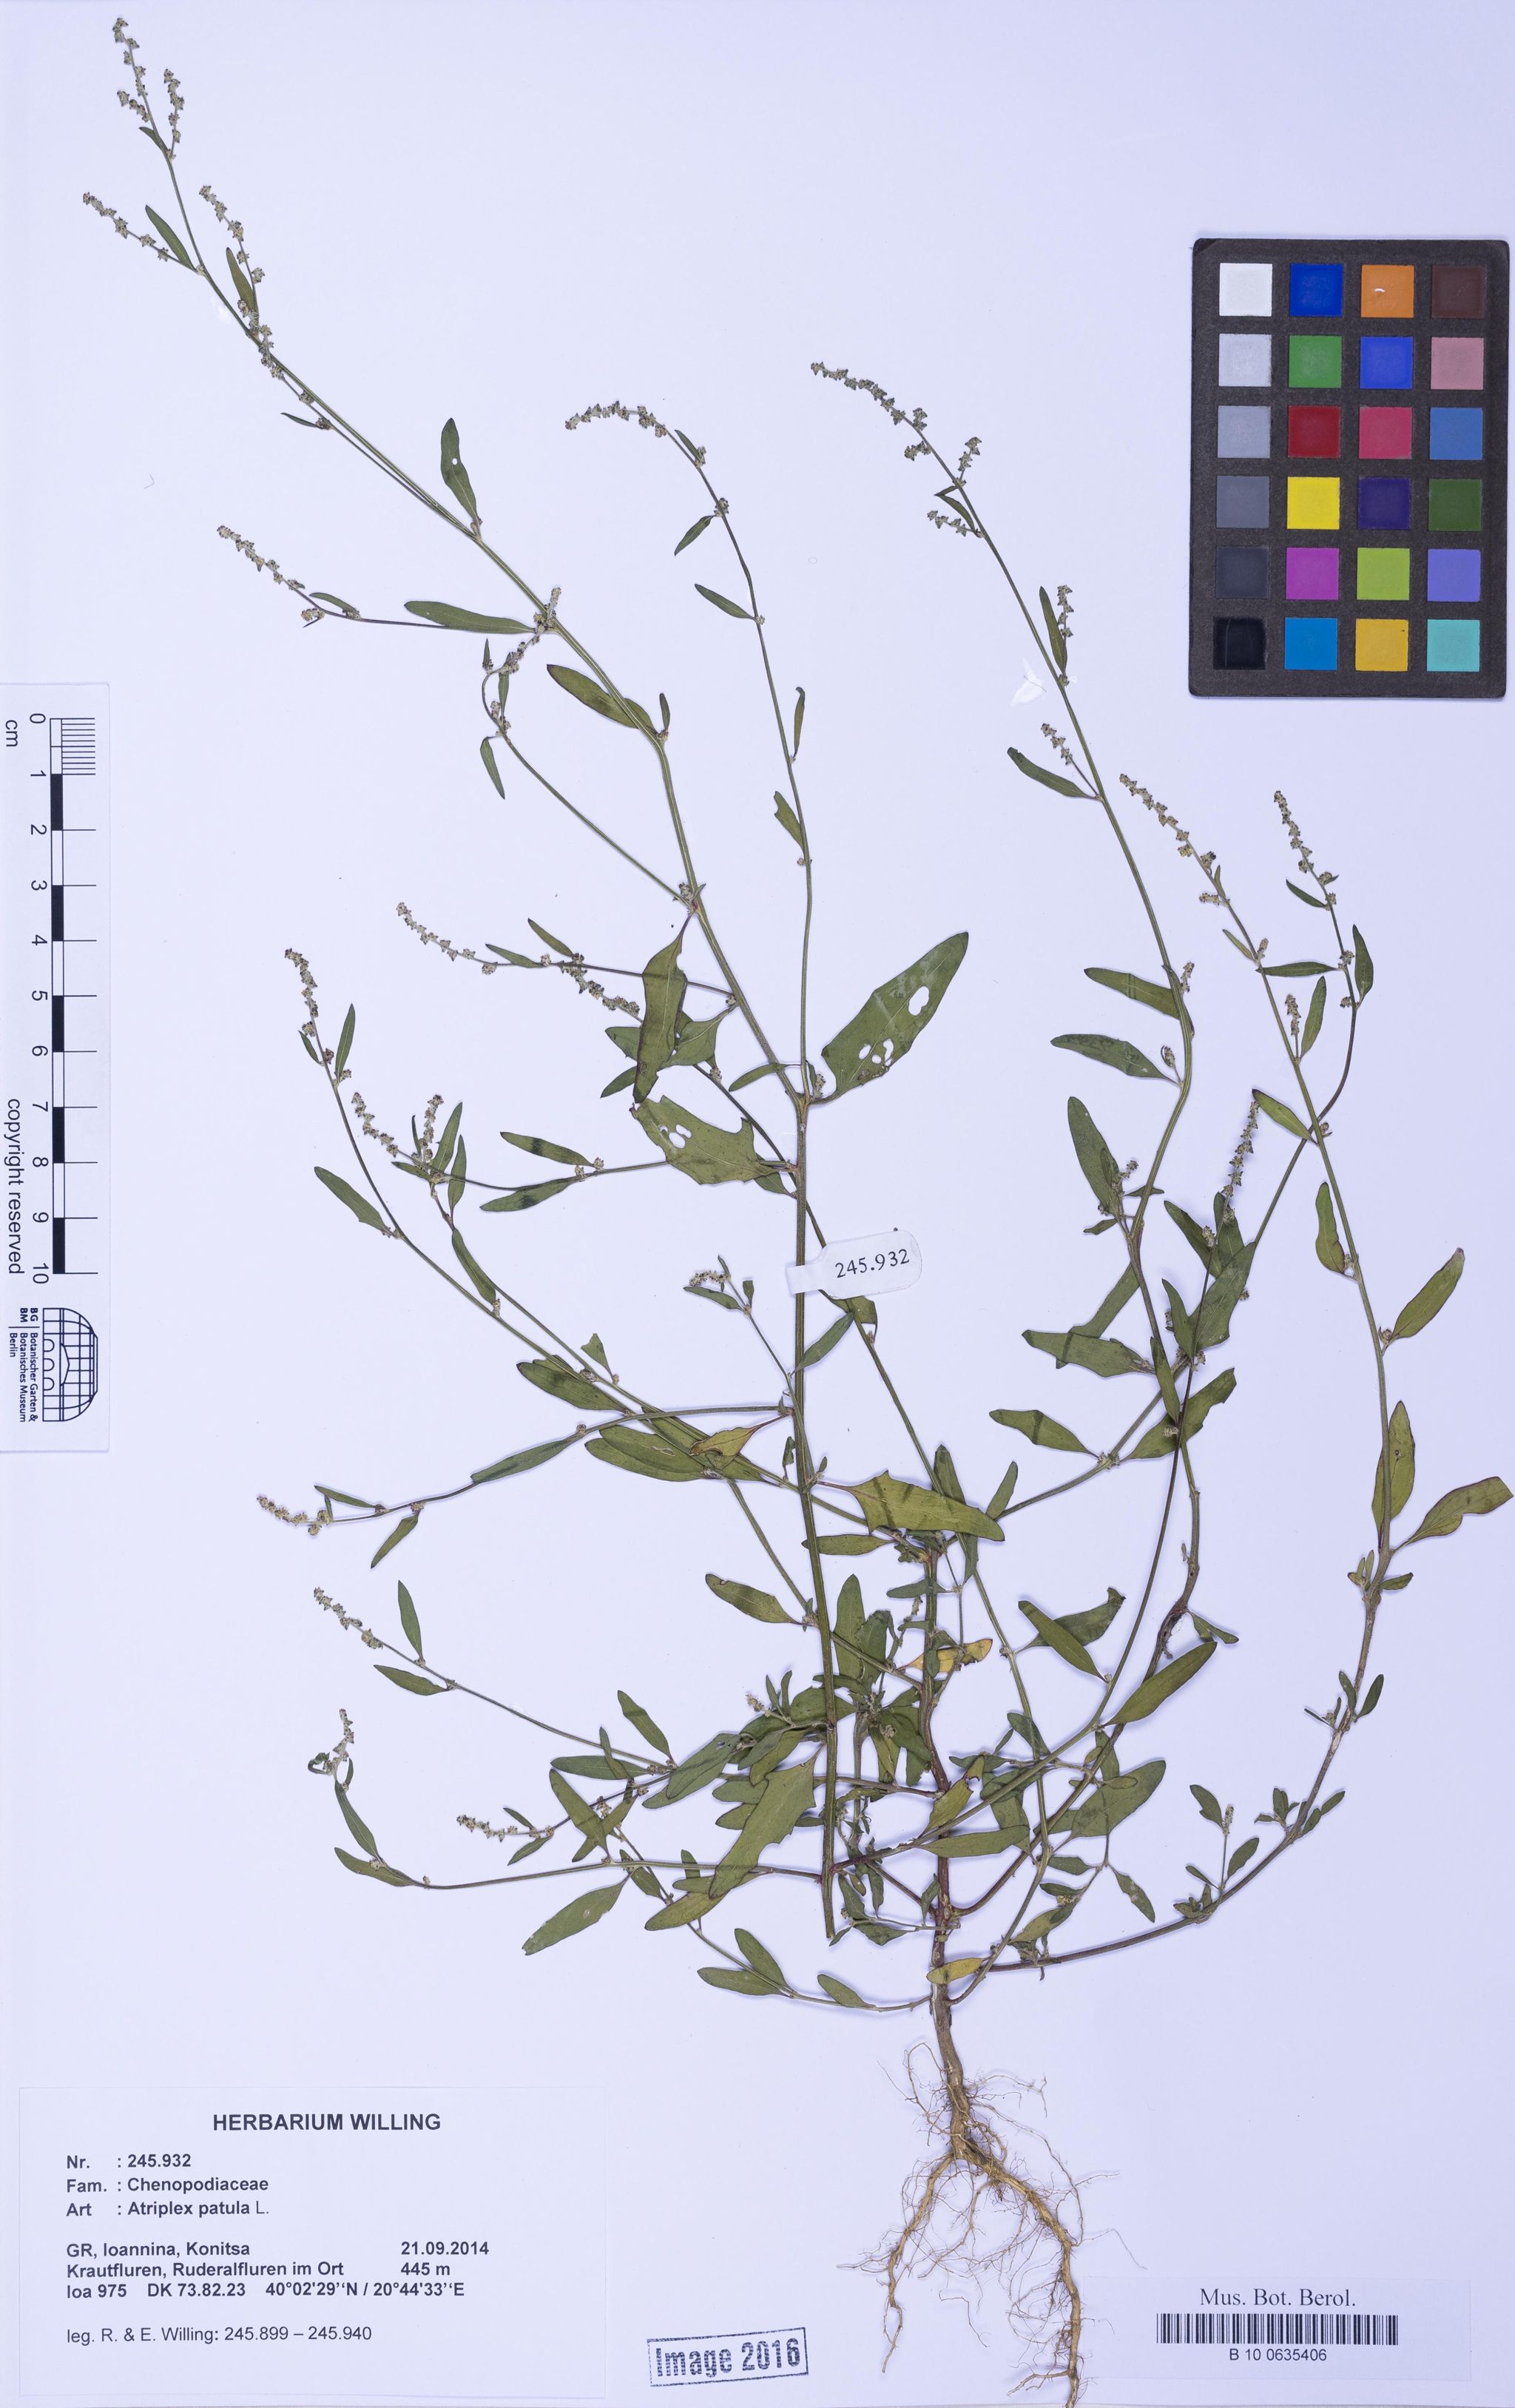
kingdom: Plantae
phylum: Tracheophyta
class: Magnoliopsida
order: Caryophyllales
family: Amaranthaceae
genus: Atriplex
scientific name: Atriplex patula
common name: Common orache
